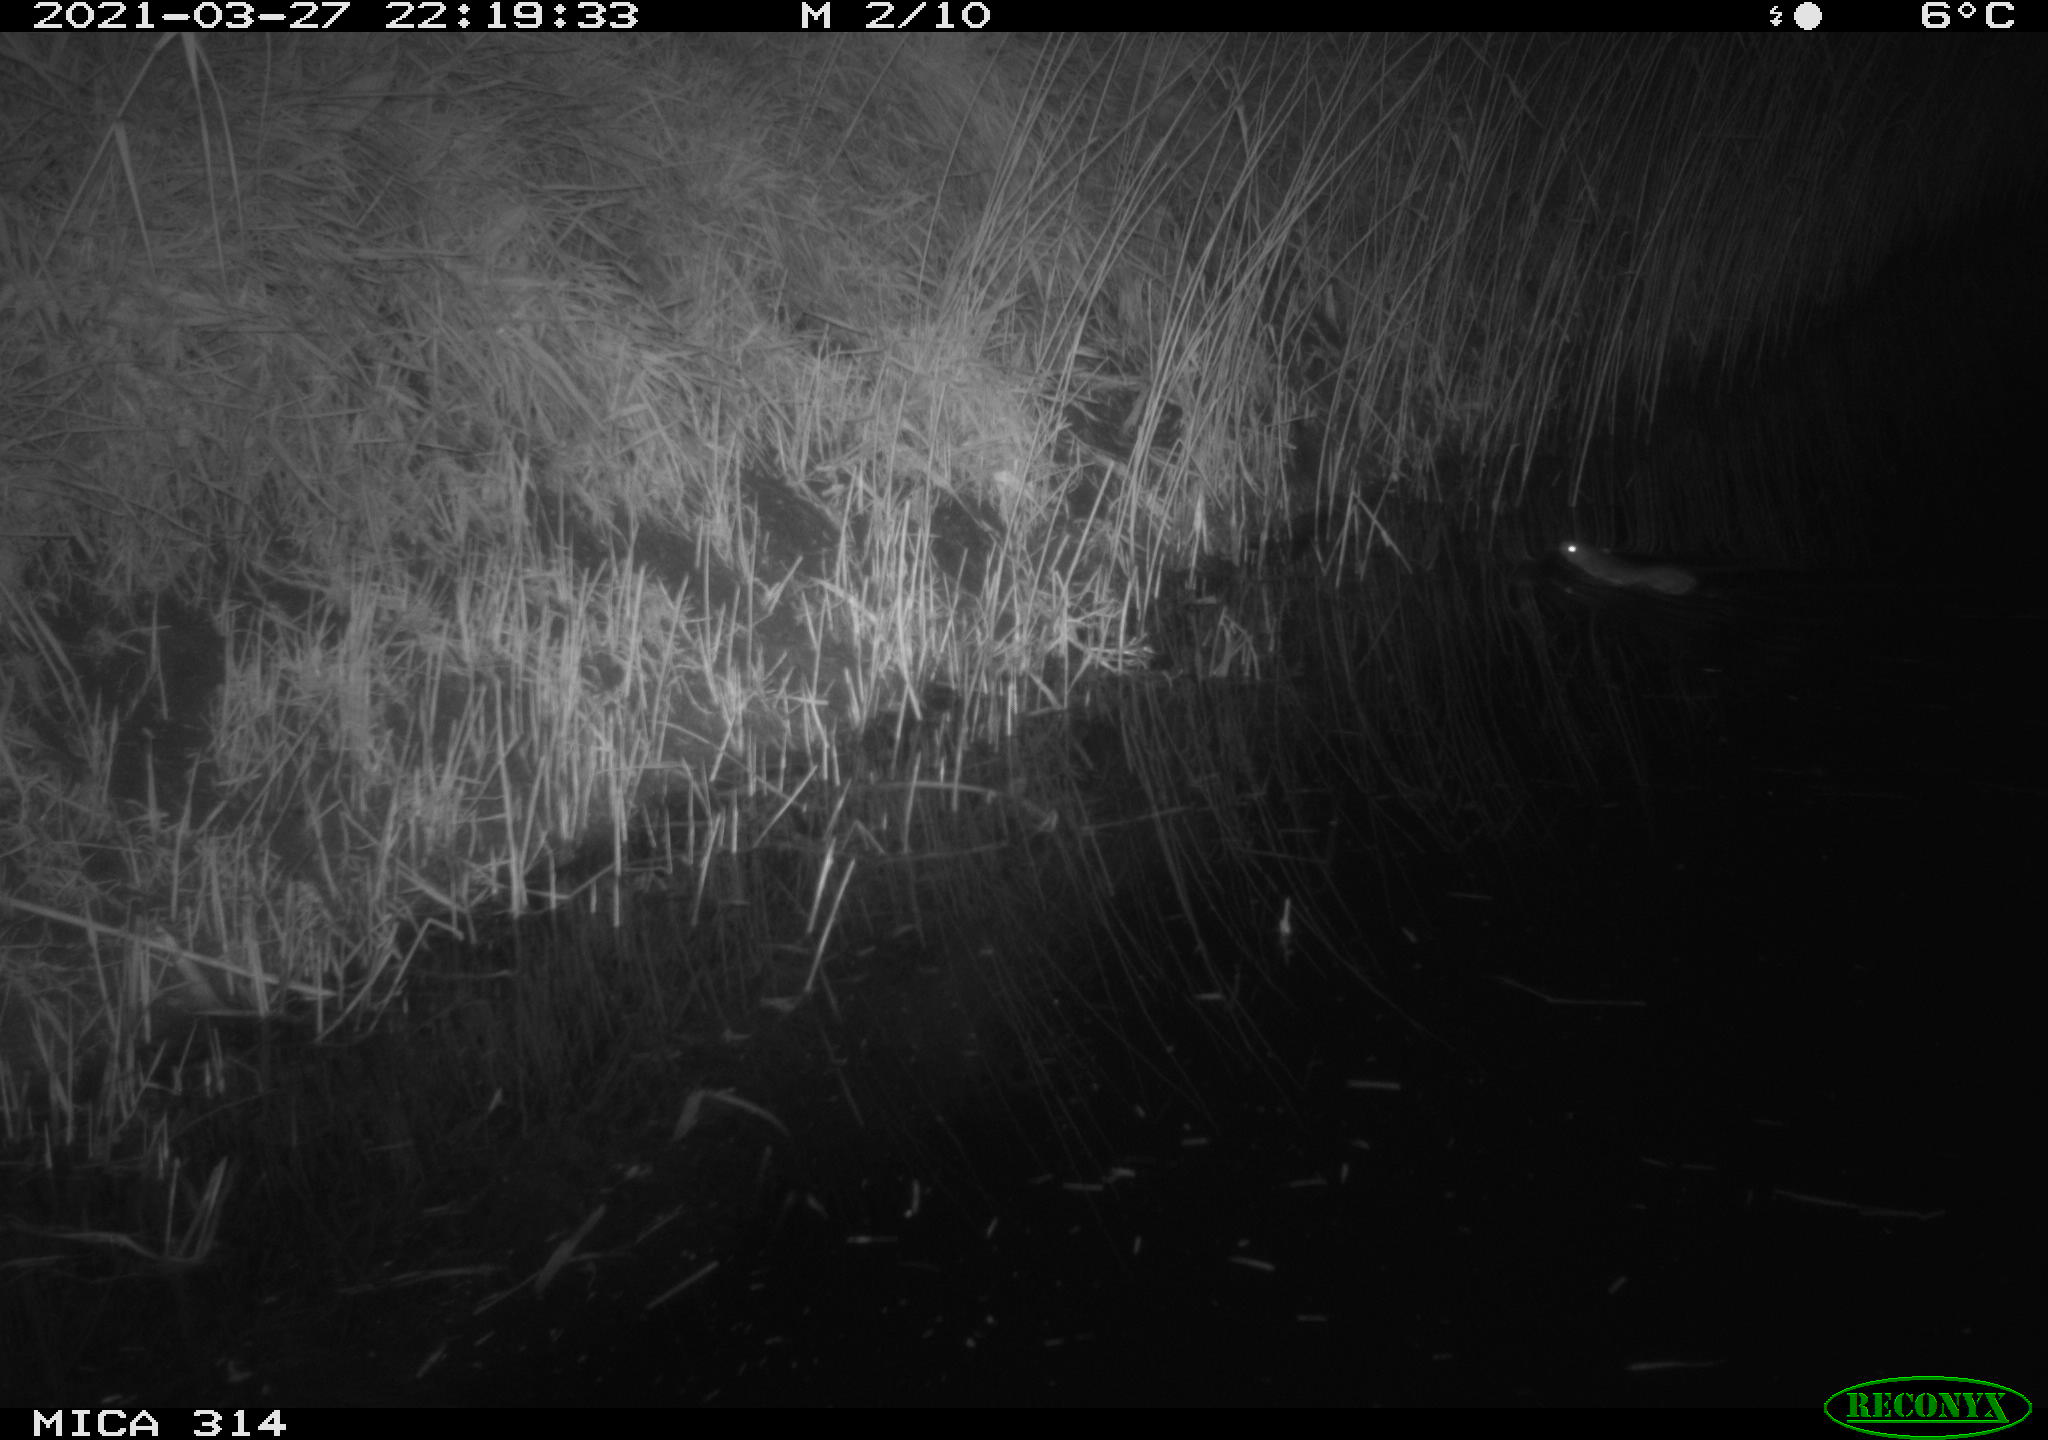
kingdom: Animalia
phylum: Chordata
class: Mammalia
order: Rodentia
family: Muridae
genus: Rattus
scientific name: Rattus norvegicus
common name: Brown rat
